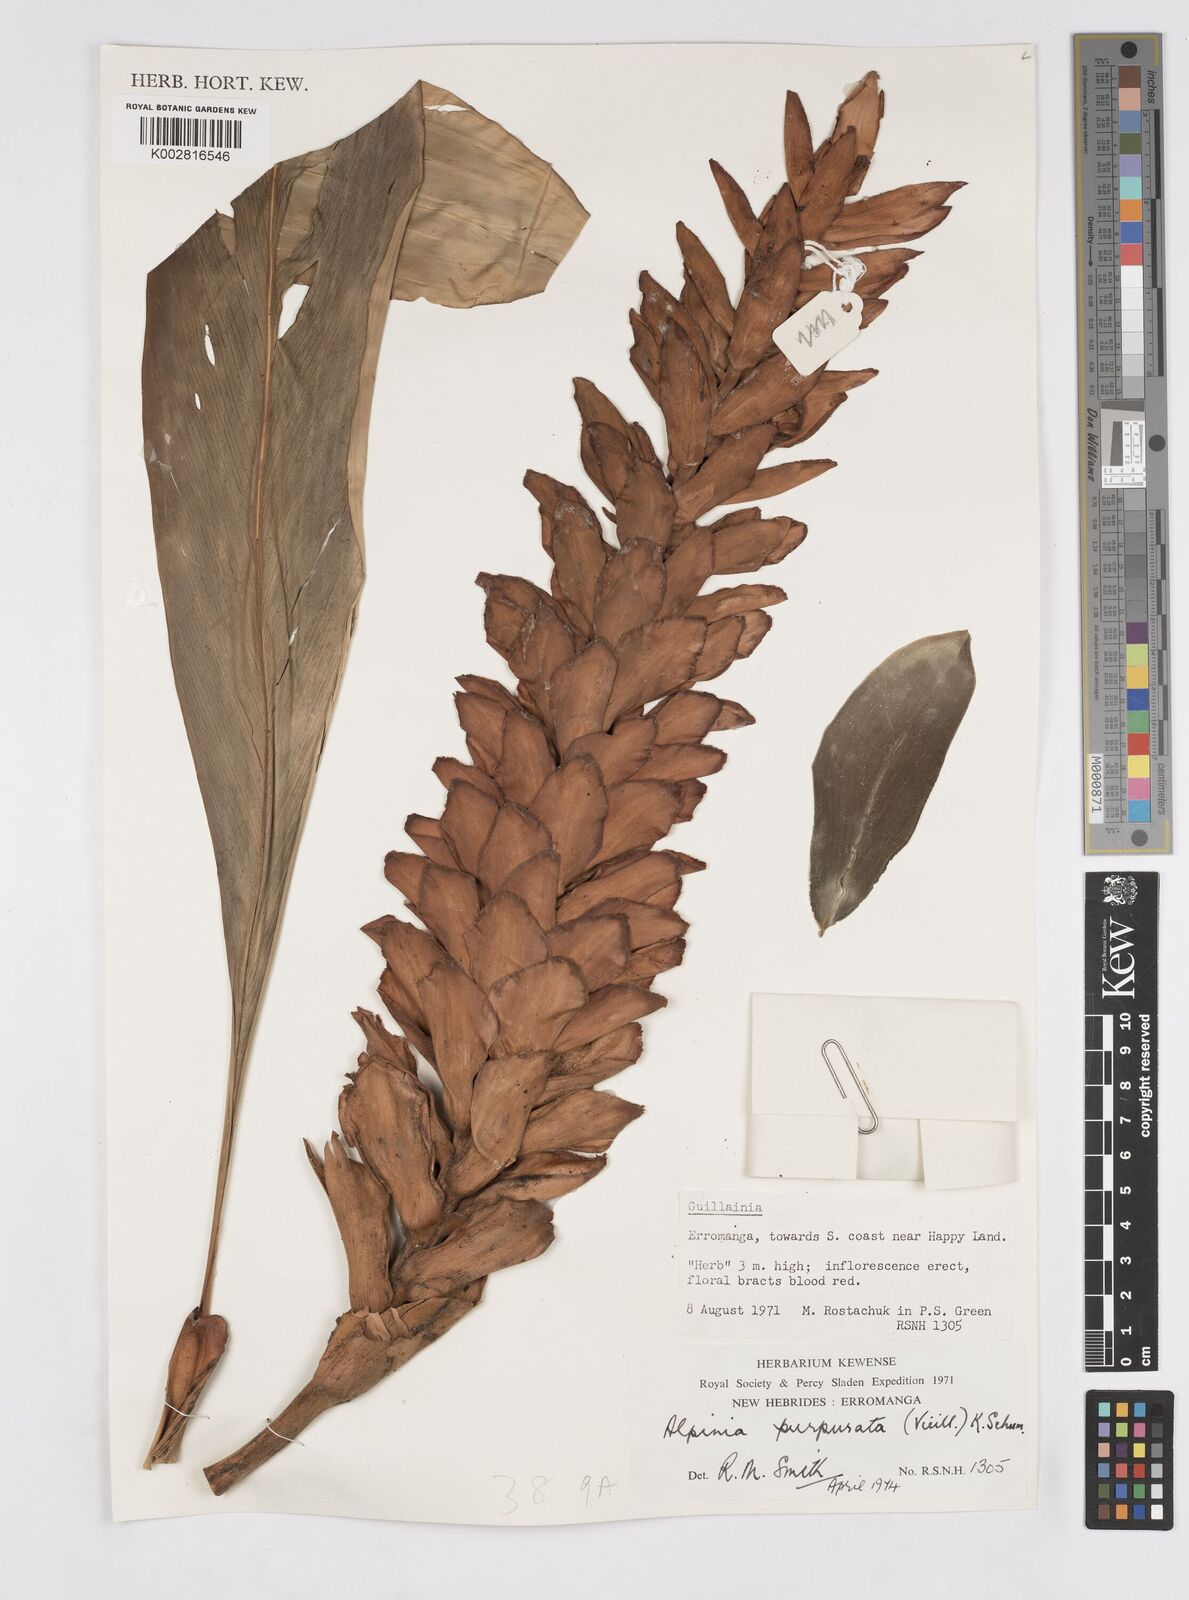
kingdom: Plantae
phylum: Tracheophyta
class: Liliopsida
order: Zingiberales
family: Zingiberaceae
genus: Alpinia
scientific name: Alpinia purpurata
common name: Red ginger
